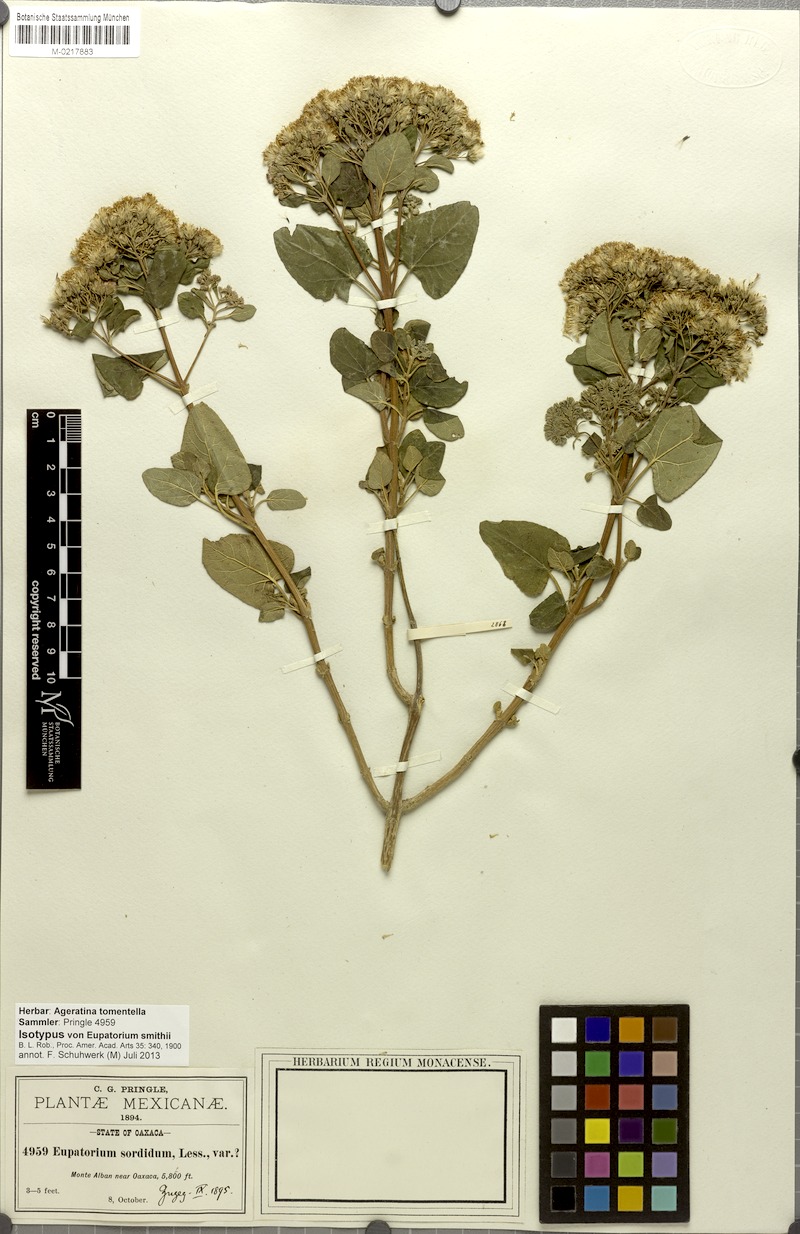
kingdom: Plantae
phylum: Tracheophyta
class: Magnoliopsida
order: Asterales
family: Asteraceae
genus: Ageratina
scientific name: Ageratina tomentella
